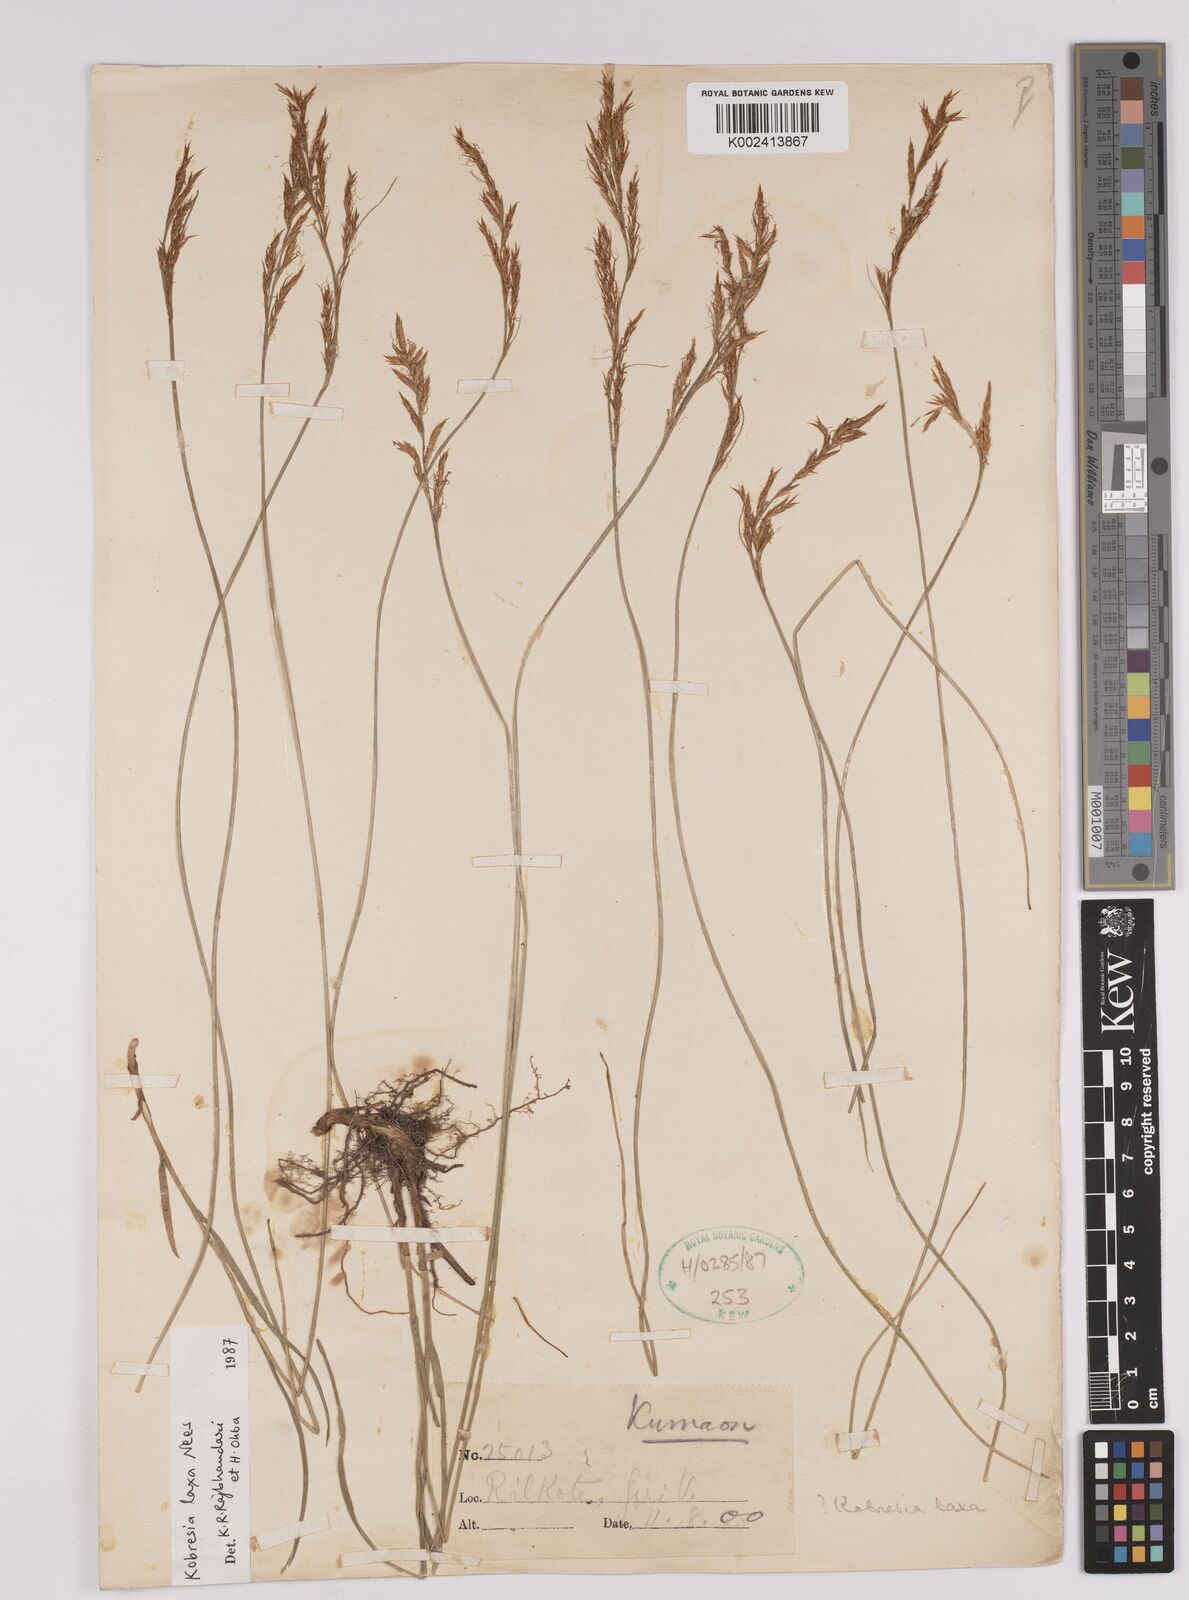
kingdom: Plantae
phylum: Tracheophyta
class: Liliopsida
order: Poales
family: Cyperaceae
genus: Carex
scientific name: Carex pseudolaxa
